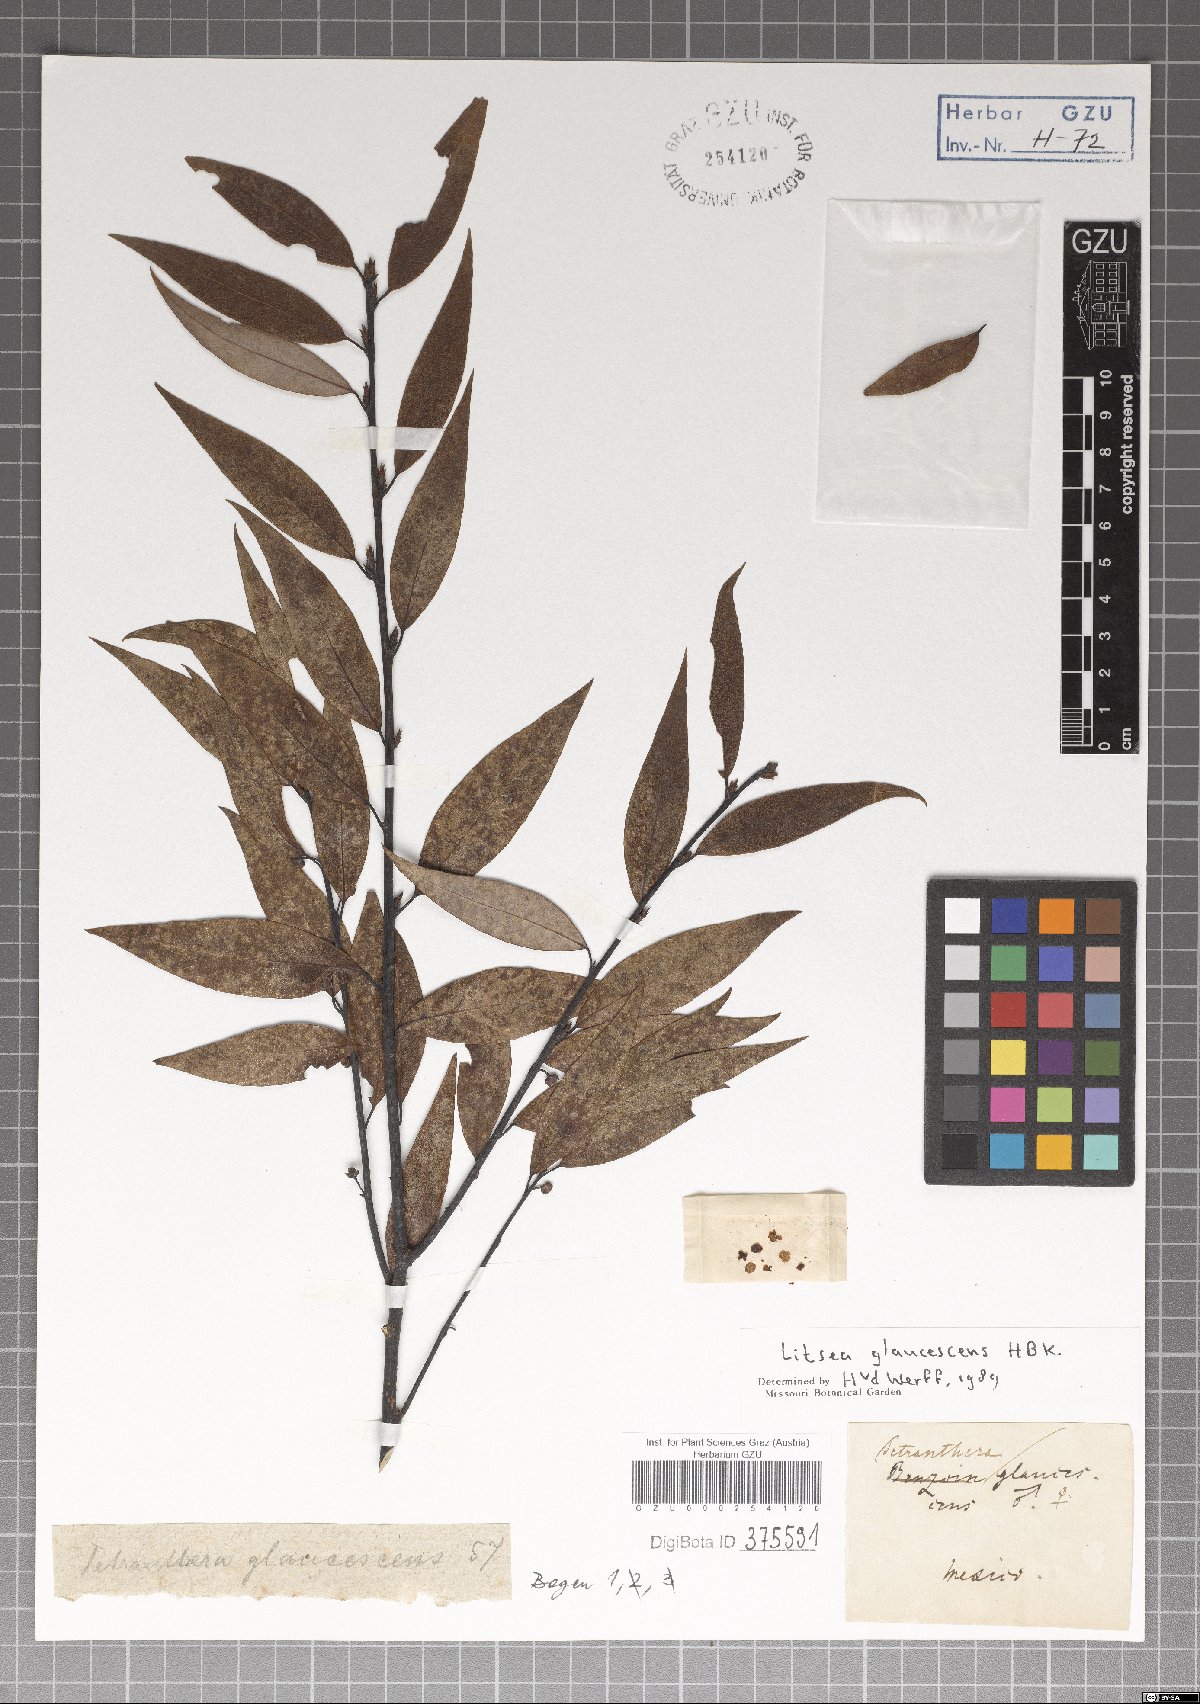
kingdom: Plantae
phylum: Tracheophyta
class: Magnoliopsida
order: Laurales
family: Lauraceae
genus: Licaria
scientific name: Licaria triandra
